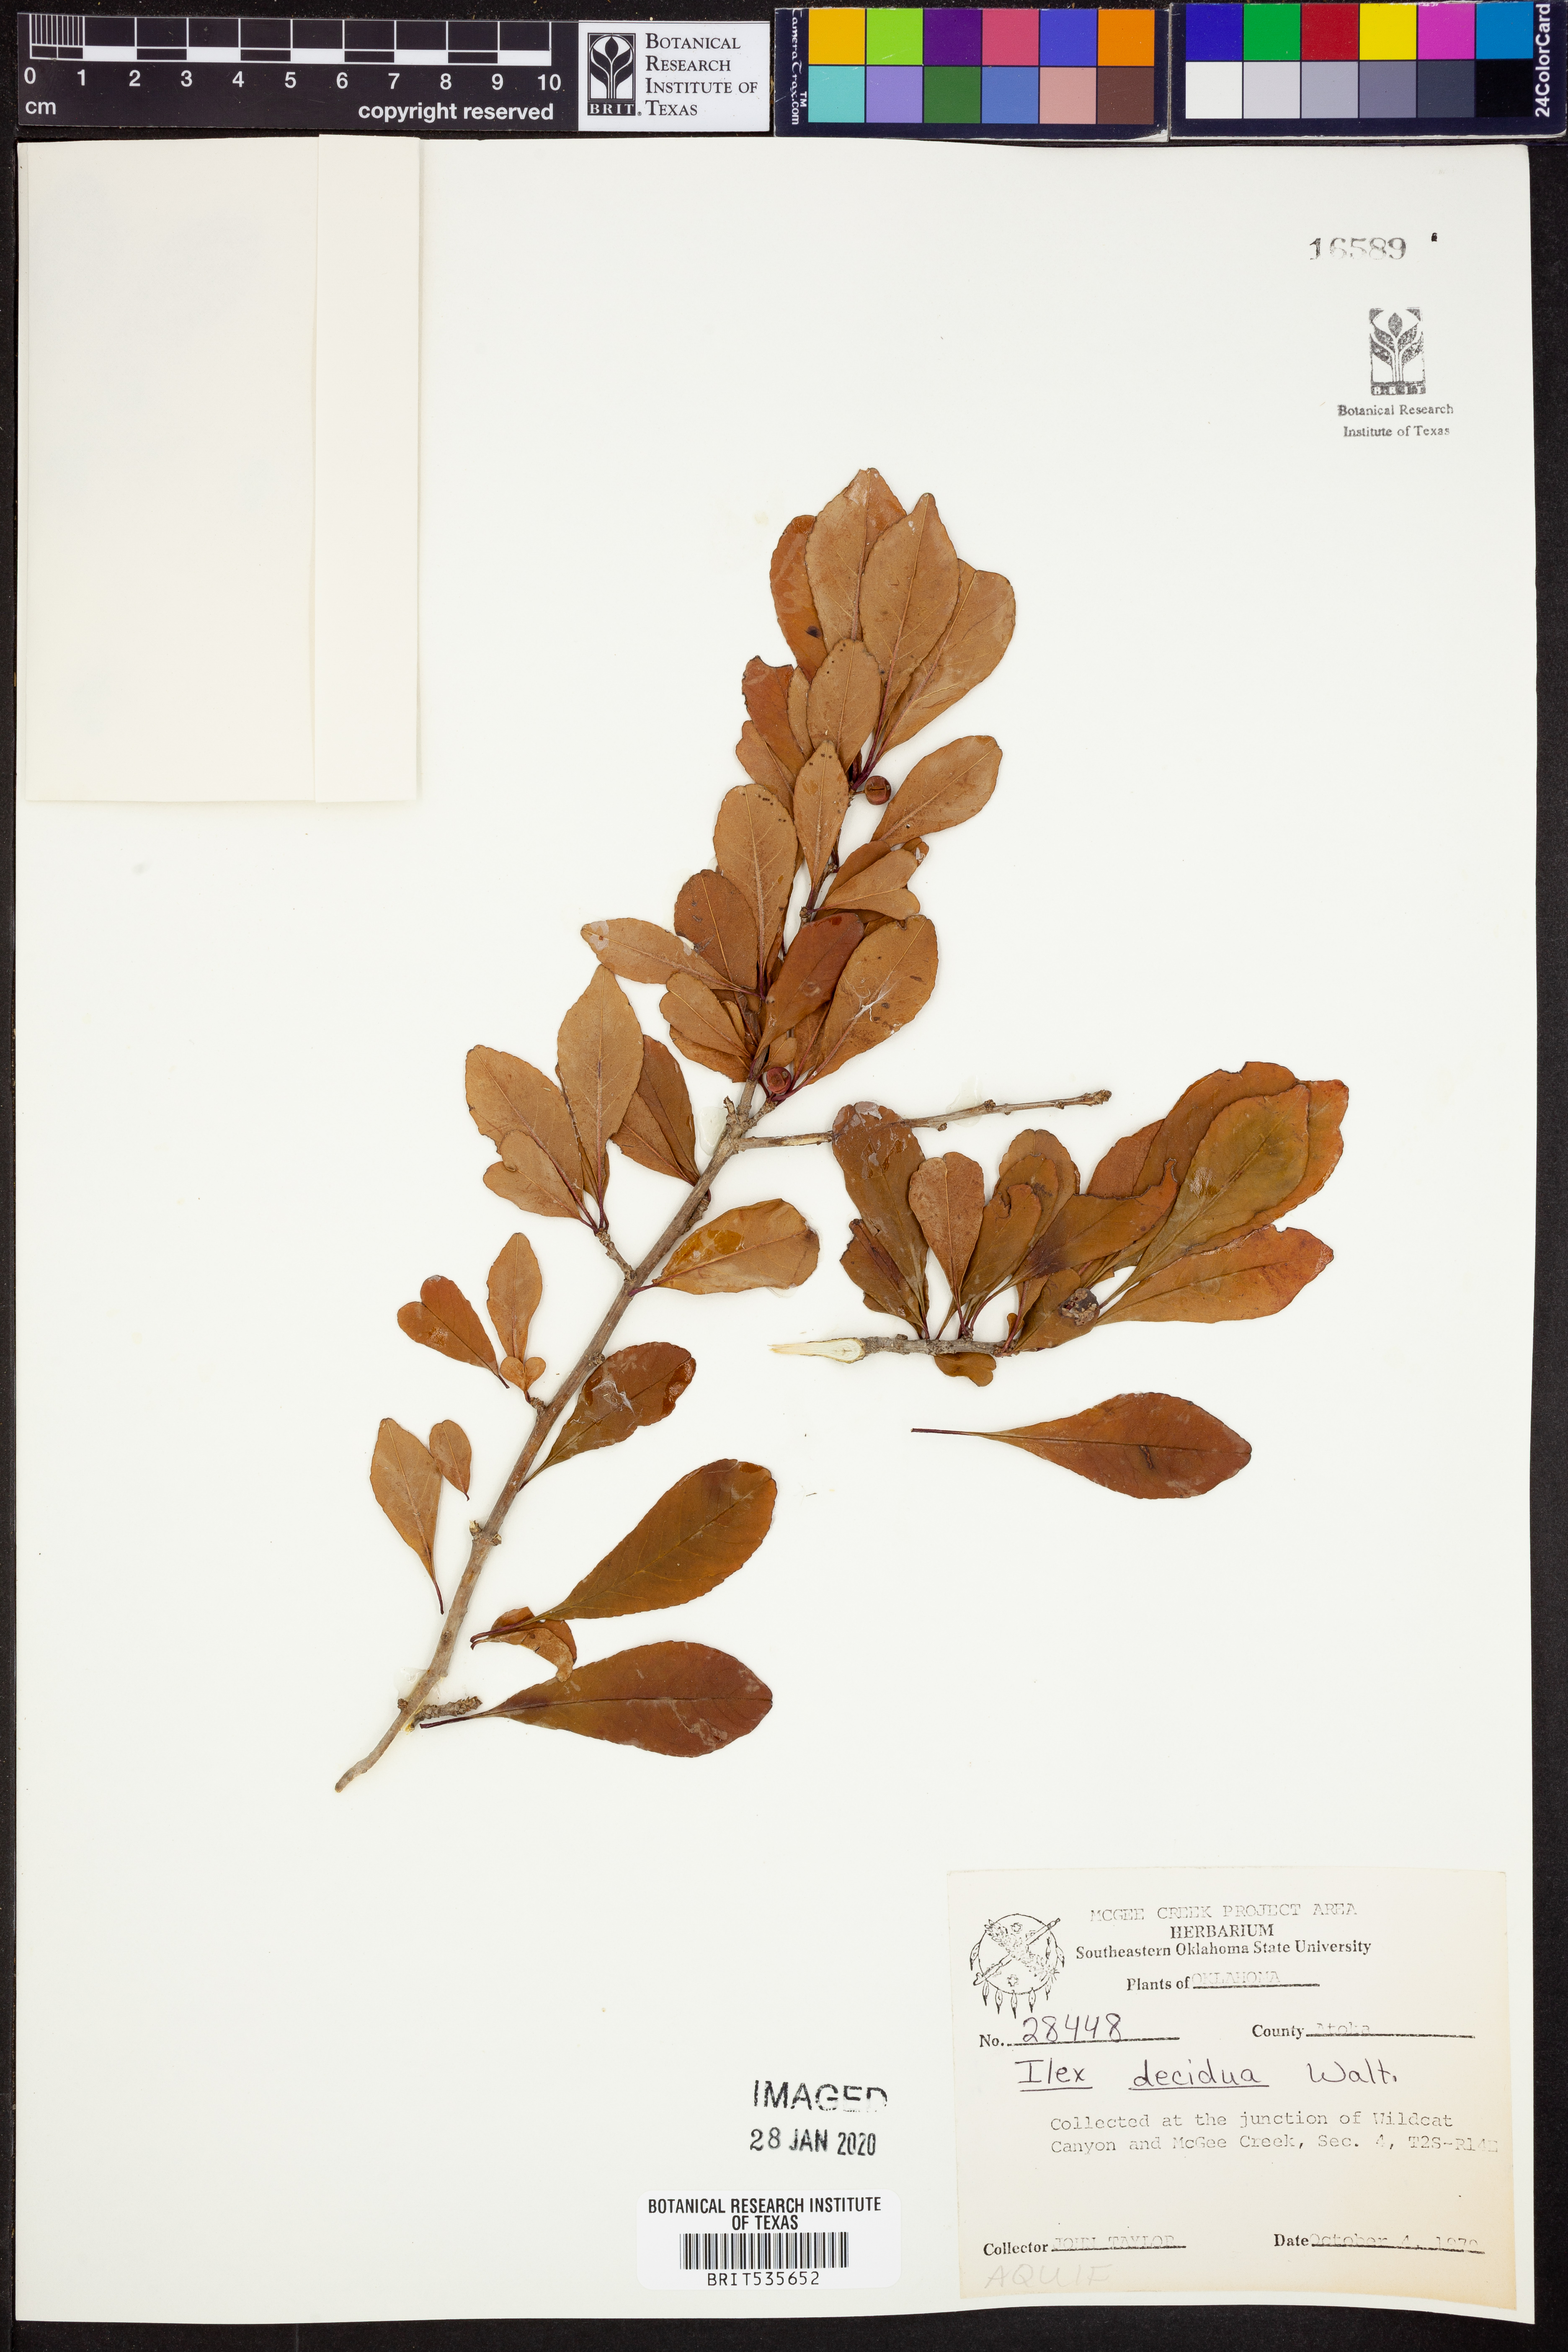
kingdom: Plantae
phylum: Tracheophyta
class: Magnoliopsida
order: Aquifoliales
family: Aquifoliaceae
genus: Ilex
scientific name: Ilex decidua
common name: Possum-haw
